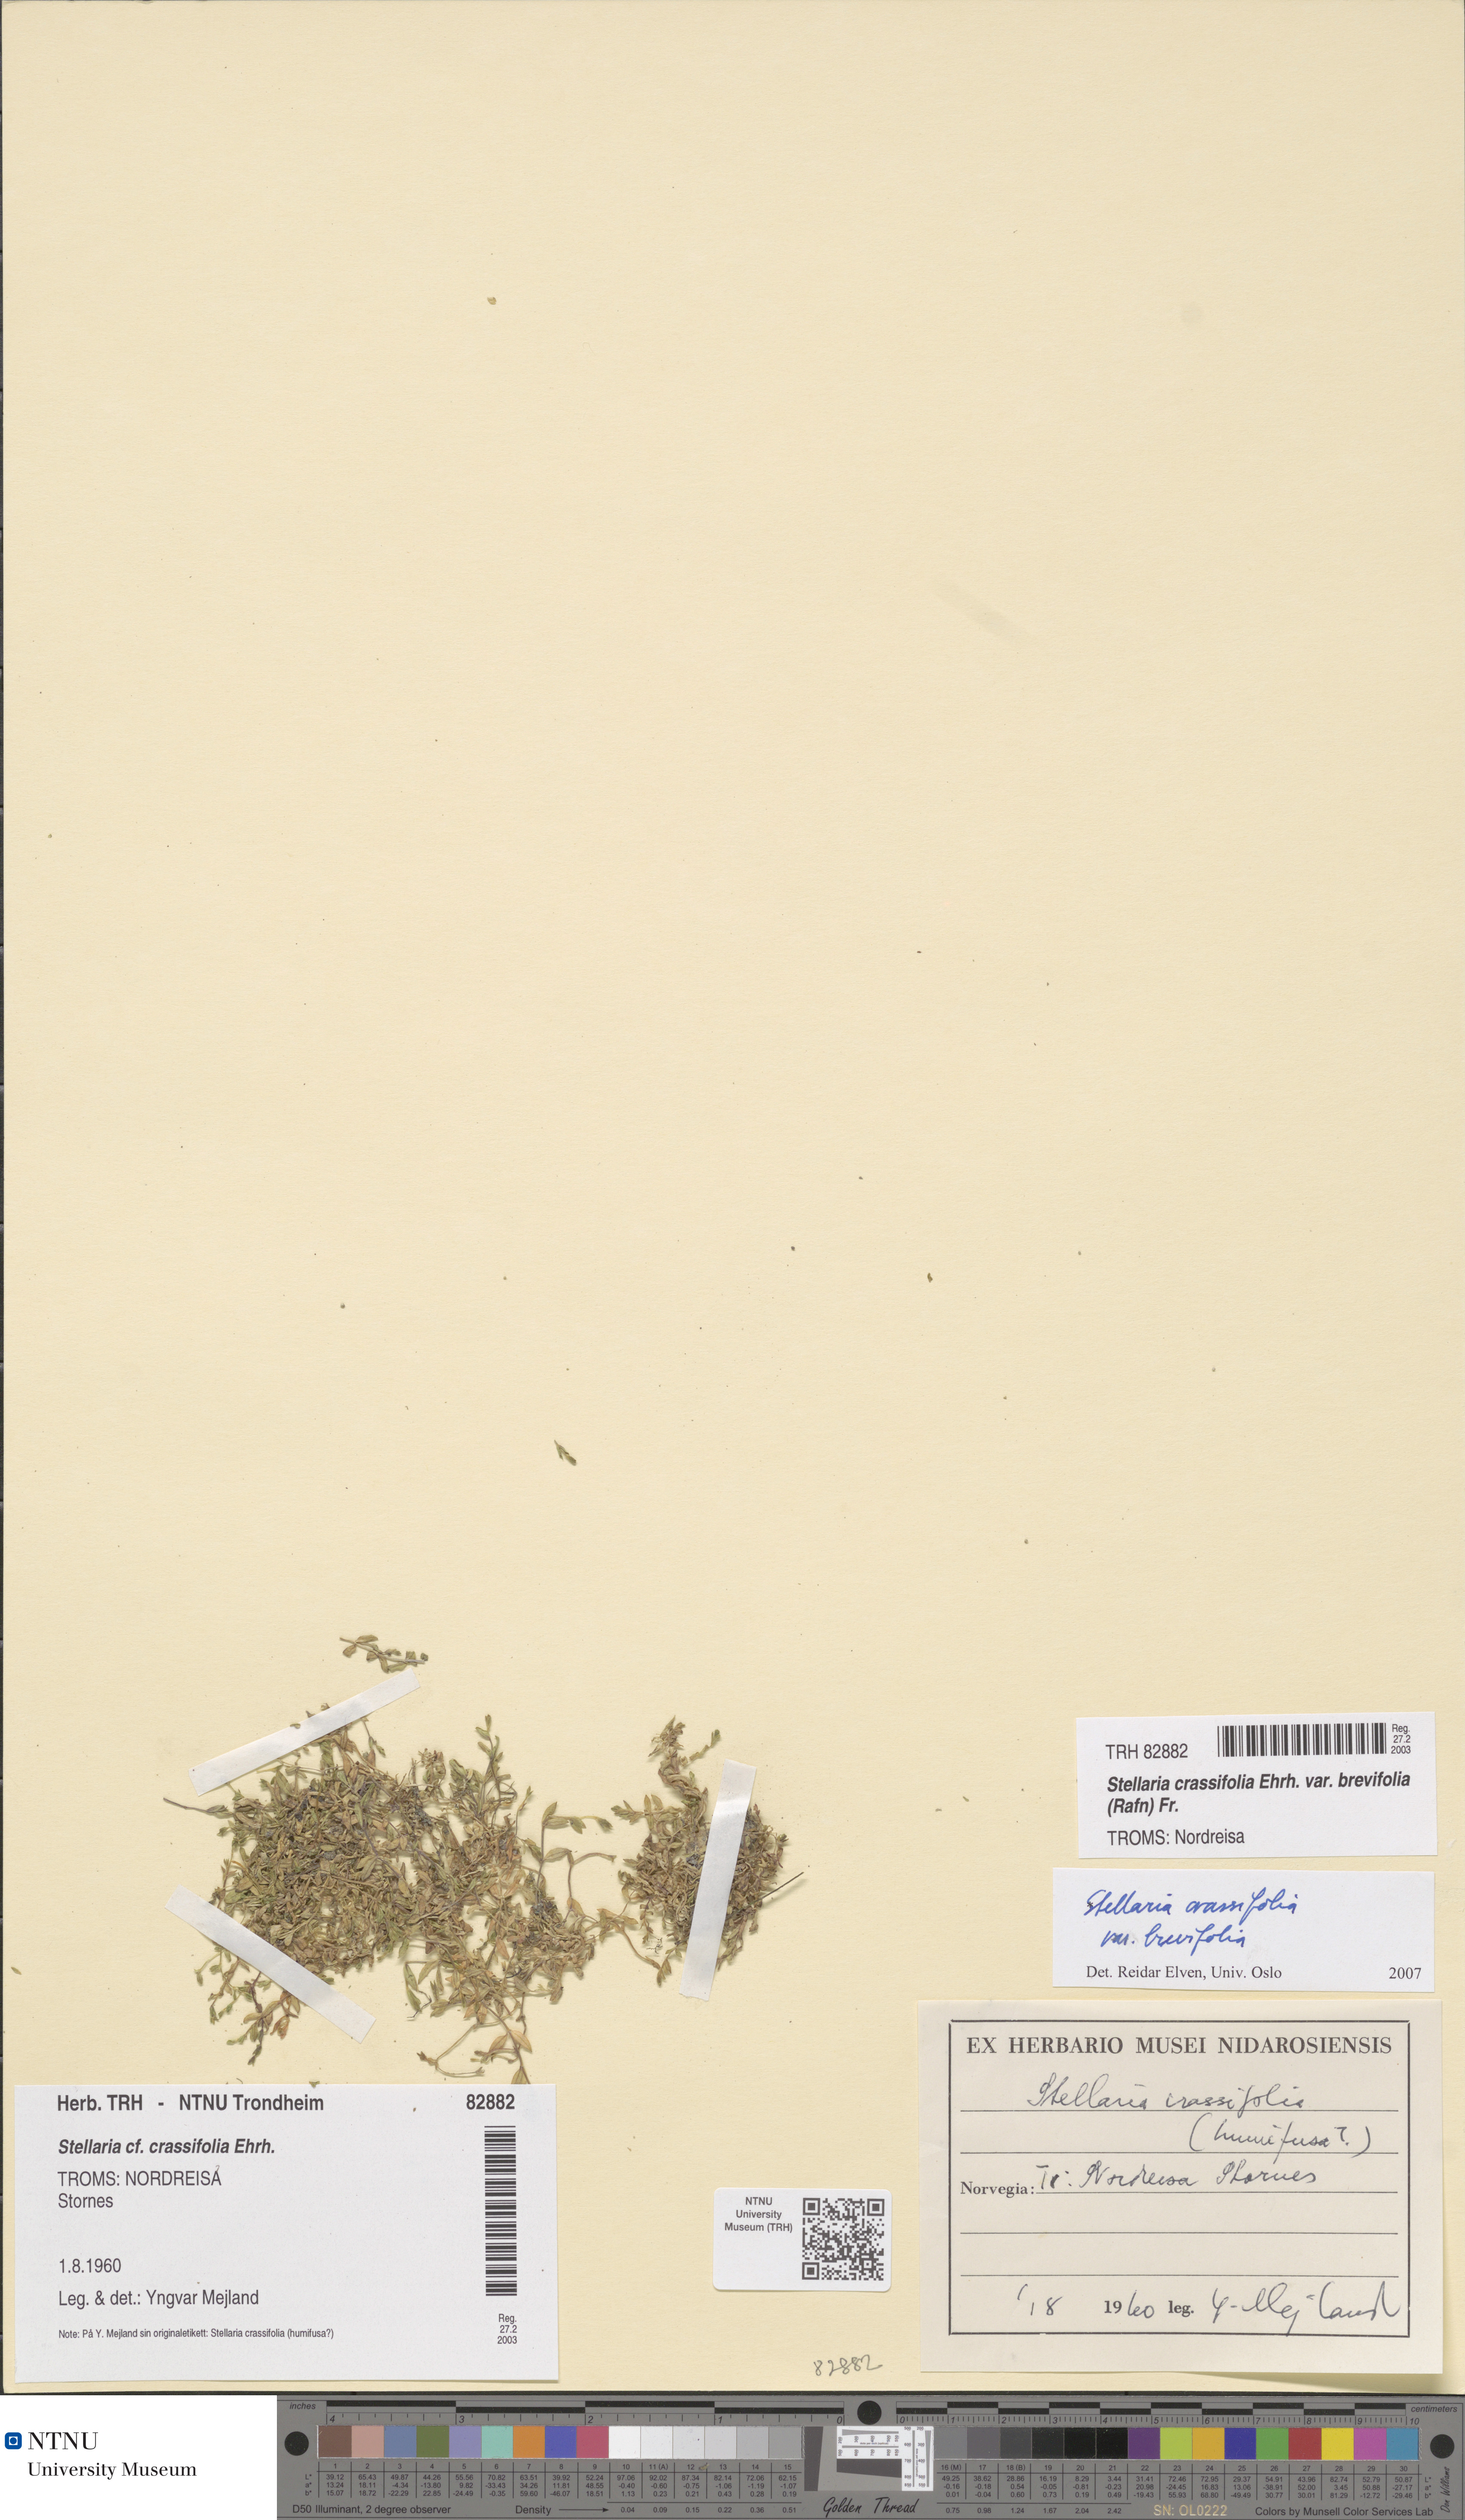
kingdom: Plantae
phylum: Tracheophyta
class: Magnoliopsida
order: Caryophyllales
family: Caryophyllaceae
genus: Stellaria
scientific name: Stellaria crassifolia
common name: Fleshy starwort
